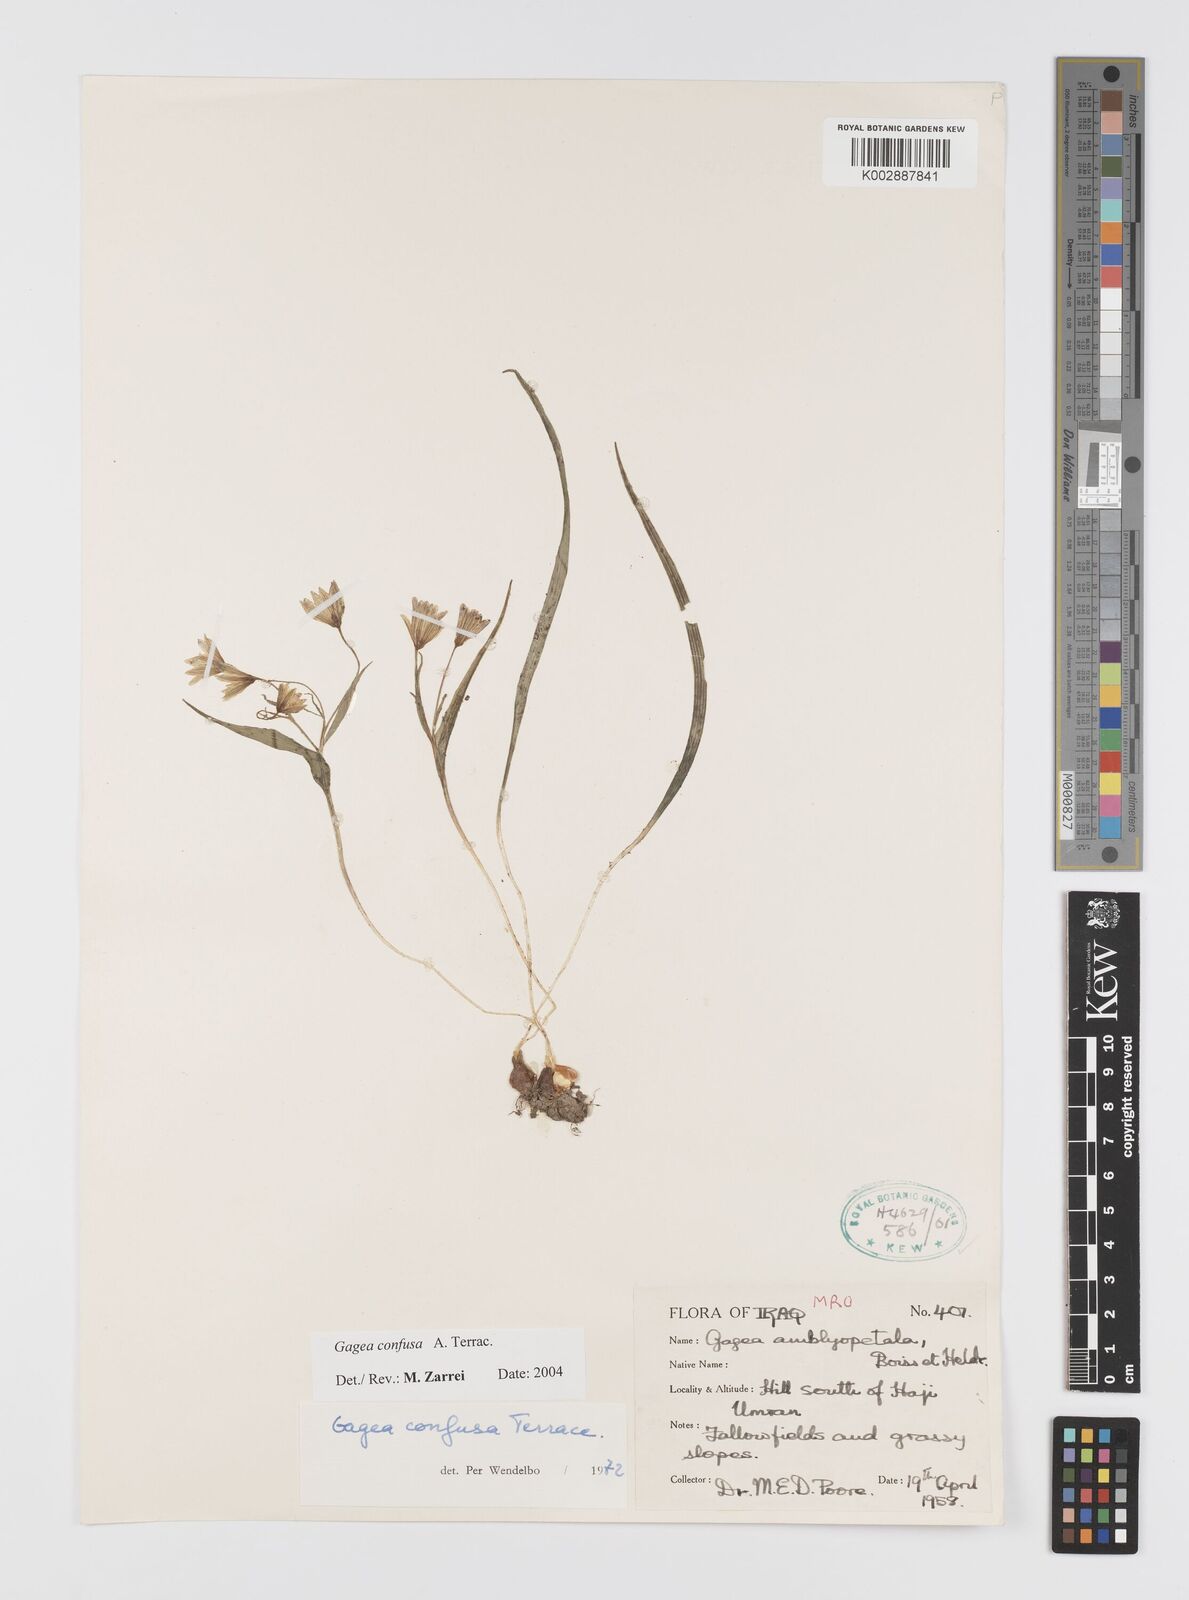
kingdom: Plantae
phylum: Tracheophyta
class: Liliopsida
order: Liliales
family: Liliaceae
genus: Gagea
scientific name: Gagea confusa
